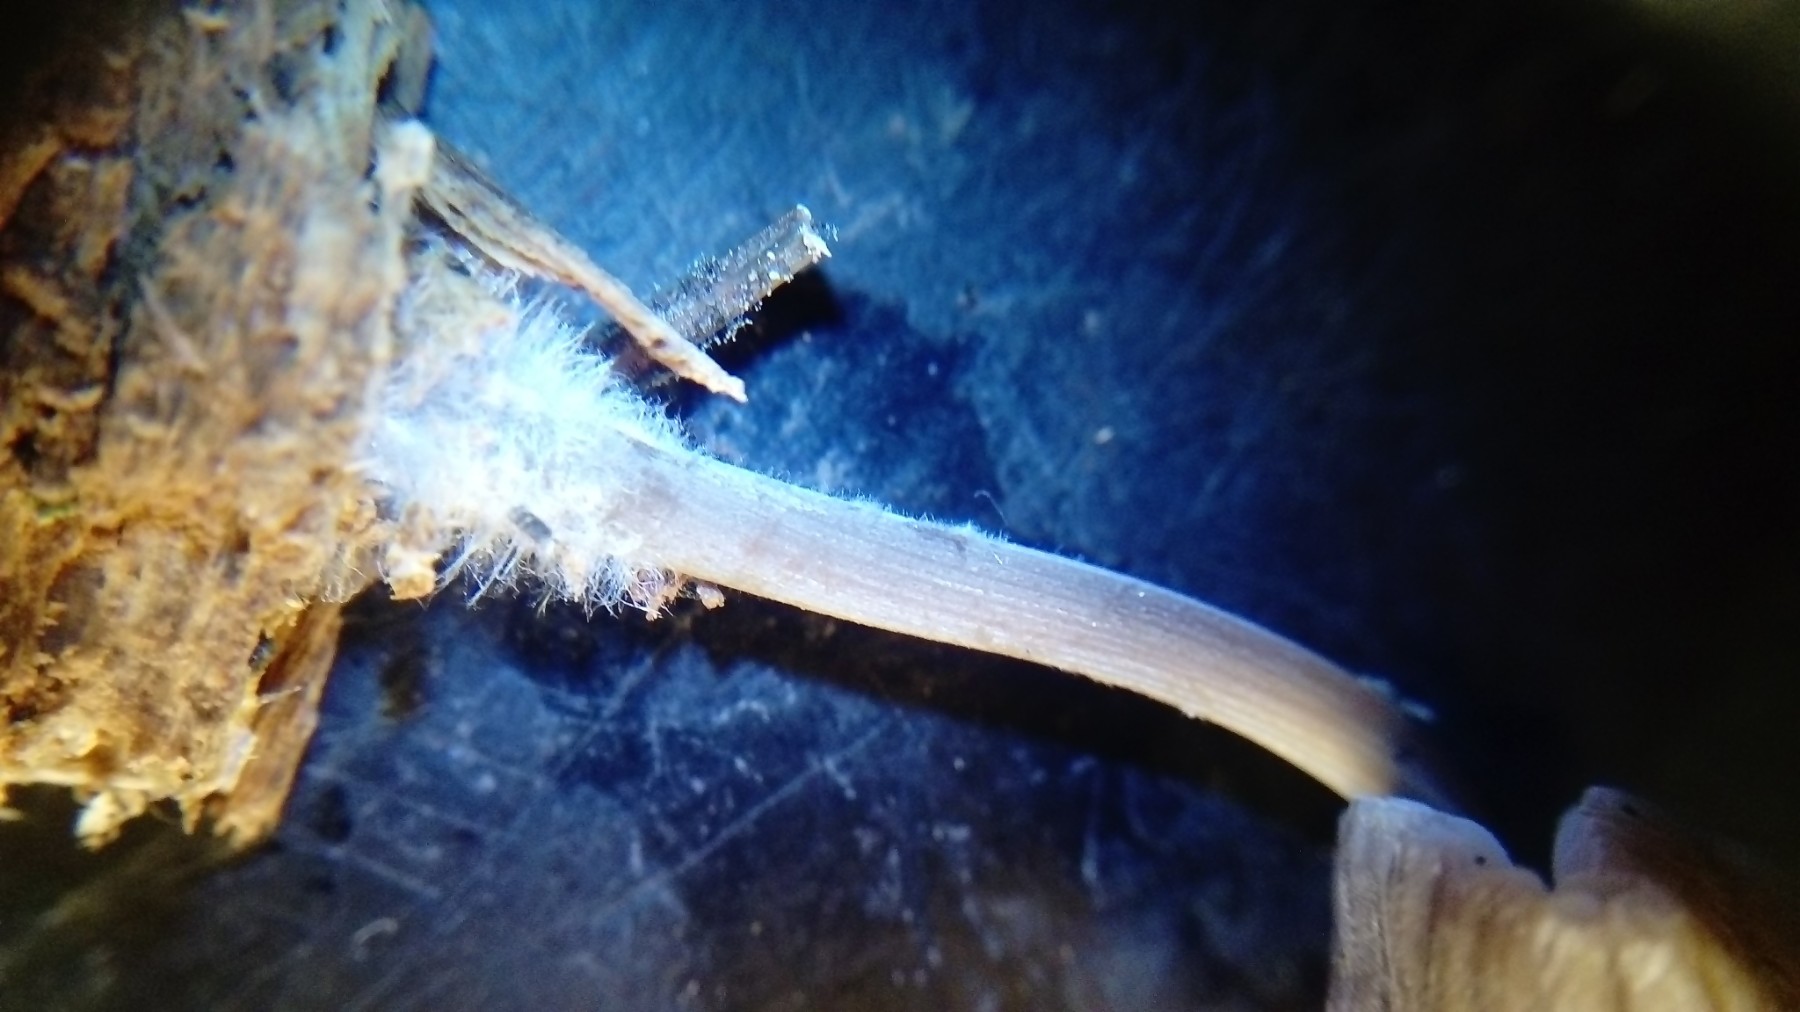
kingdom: Fungi
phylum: Basidiomycota
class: Agaricomycetes
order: Agaricales
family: Mycenaceae
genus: Mycena
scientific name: Mycena leptocephala
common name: klor-huesvamp
